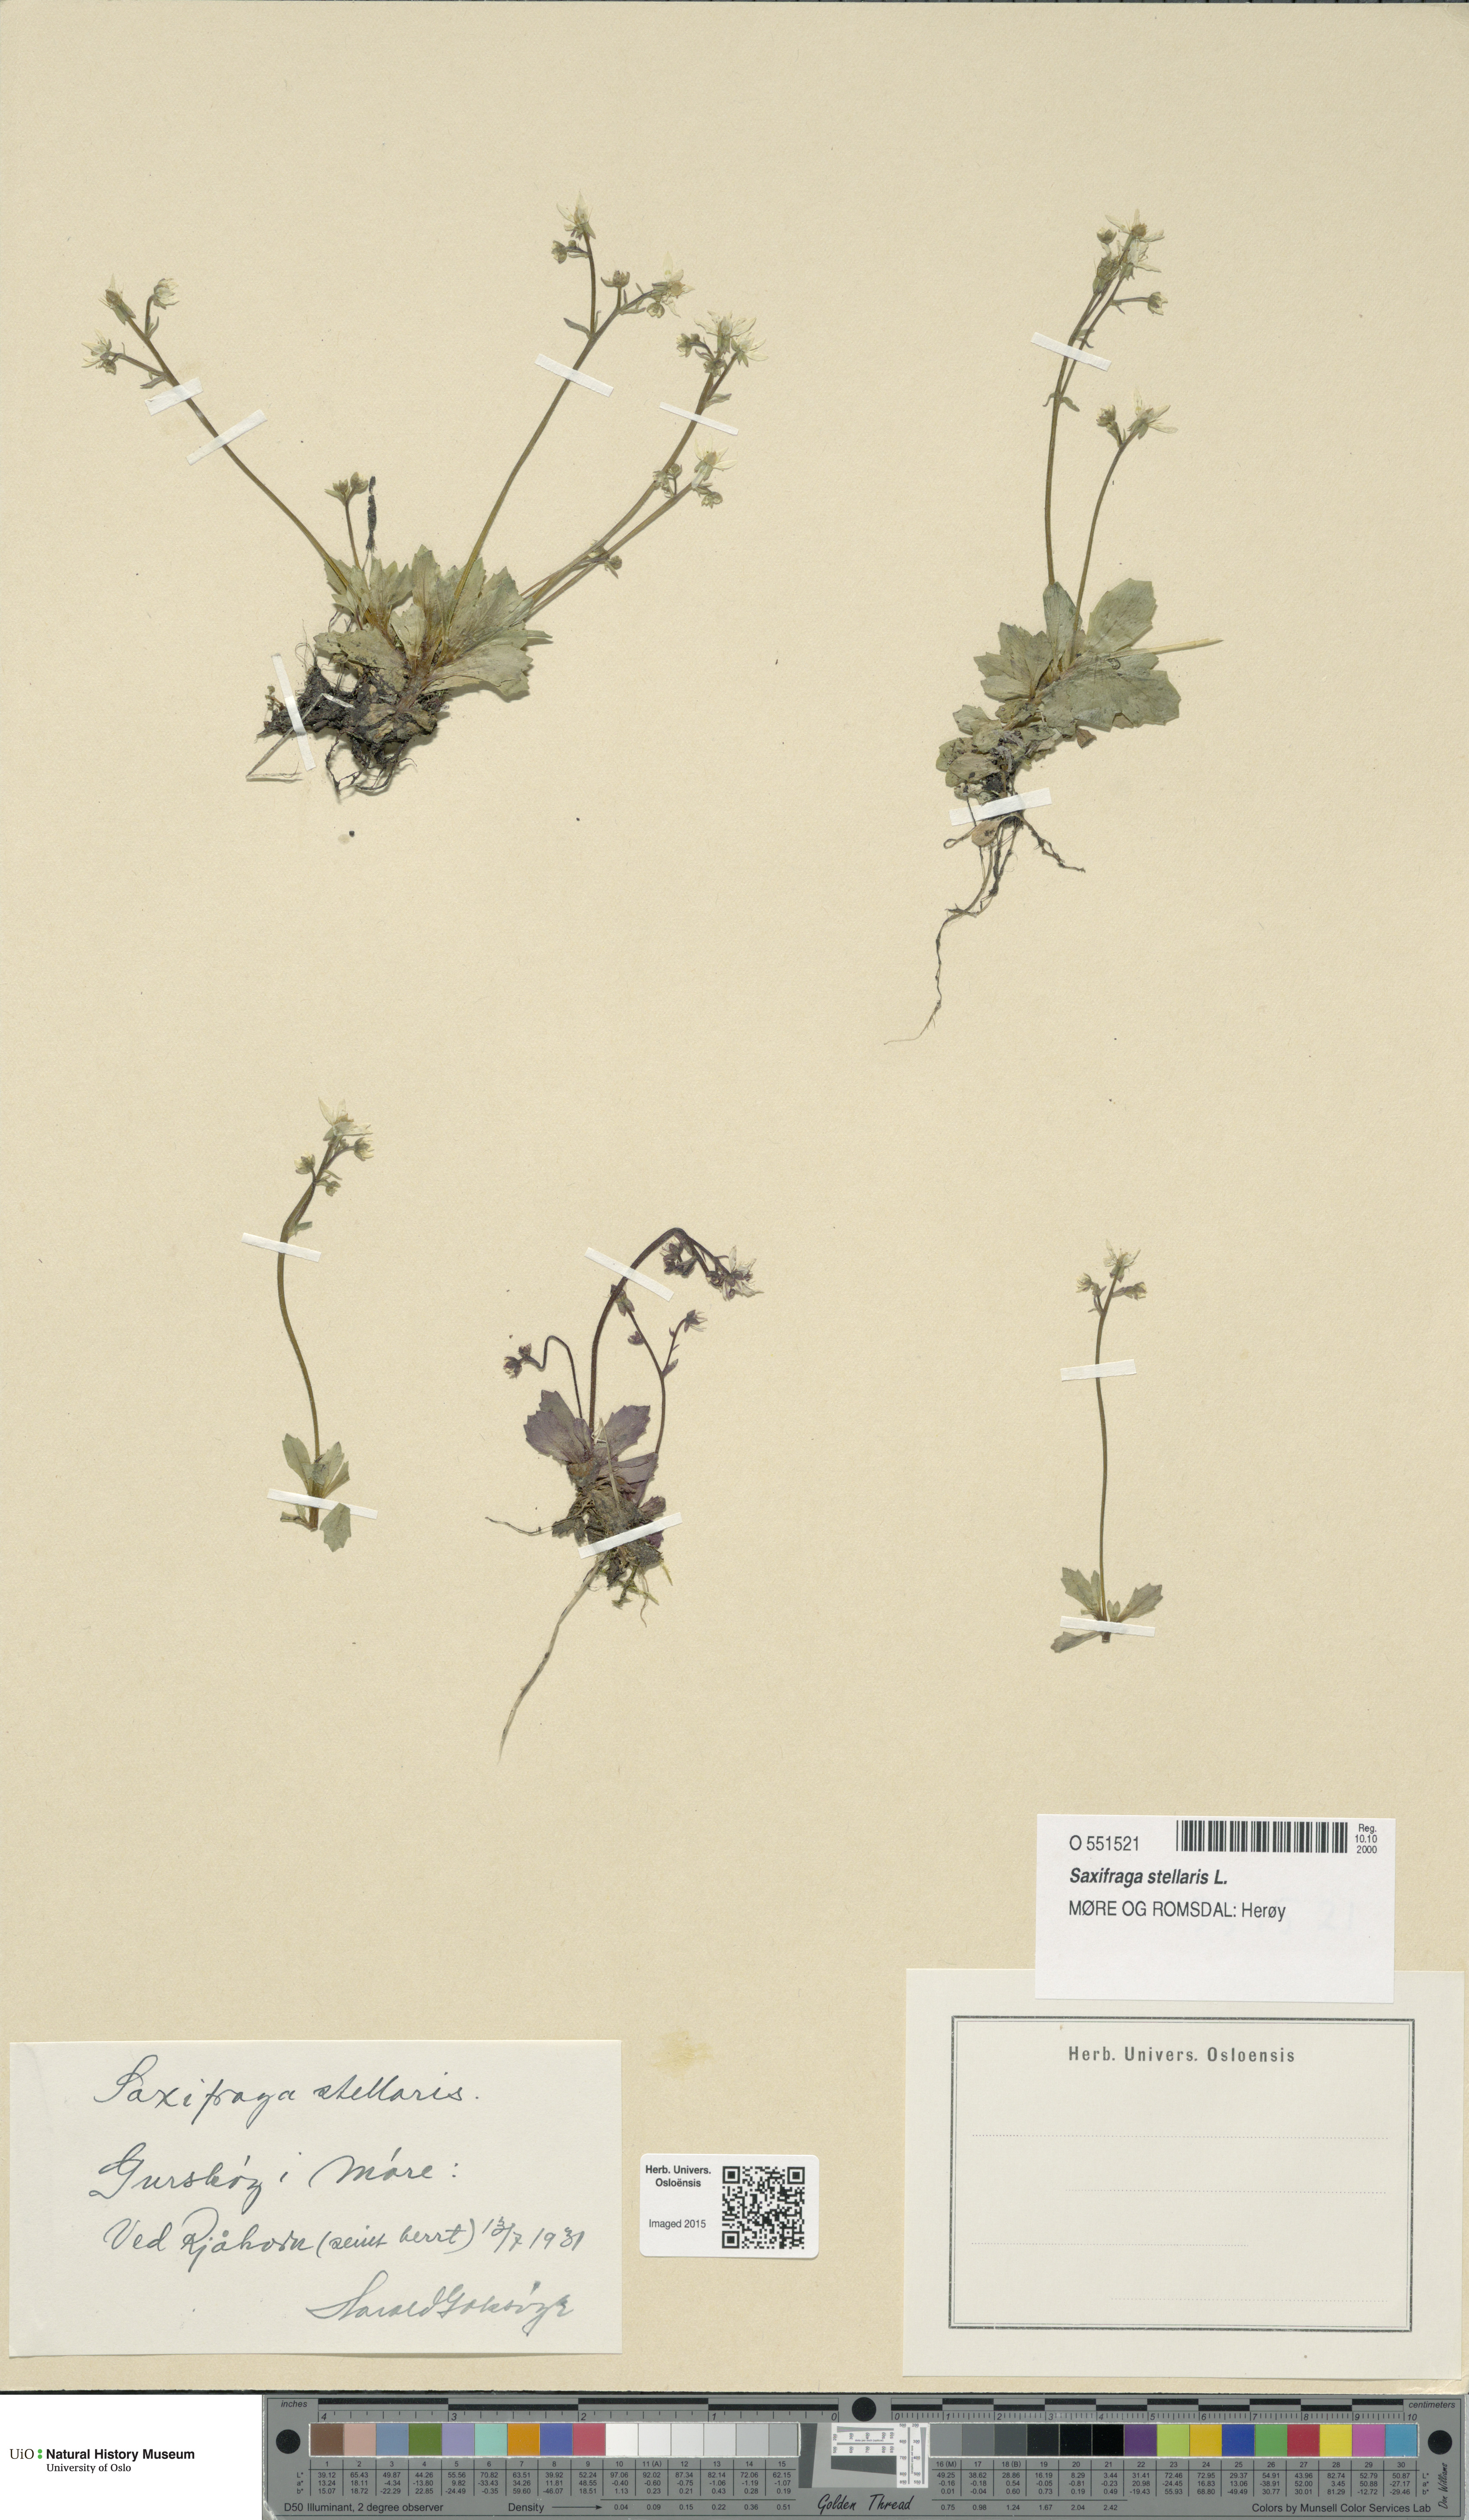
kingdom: Plantae
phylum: Tracheophyta
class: Magnoliopsida
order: Saxifragales
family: Saxifragaceae
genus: Micranthes
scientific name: Micranthes stellaris
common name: Starry saxifrage
